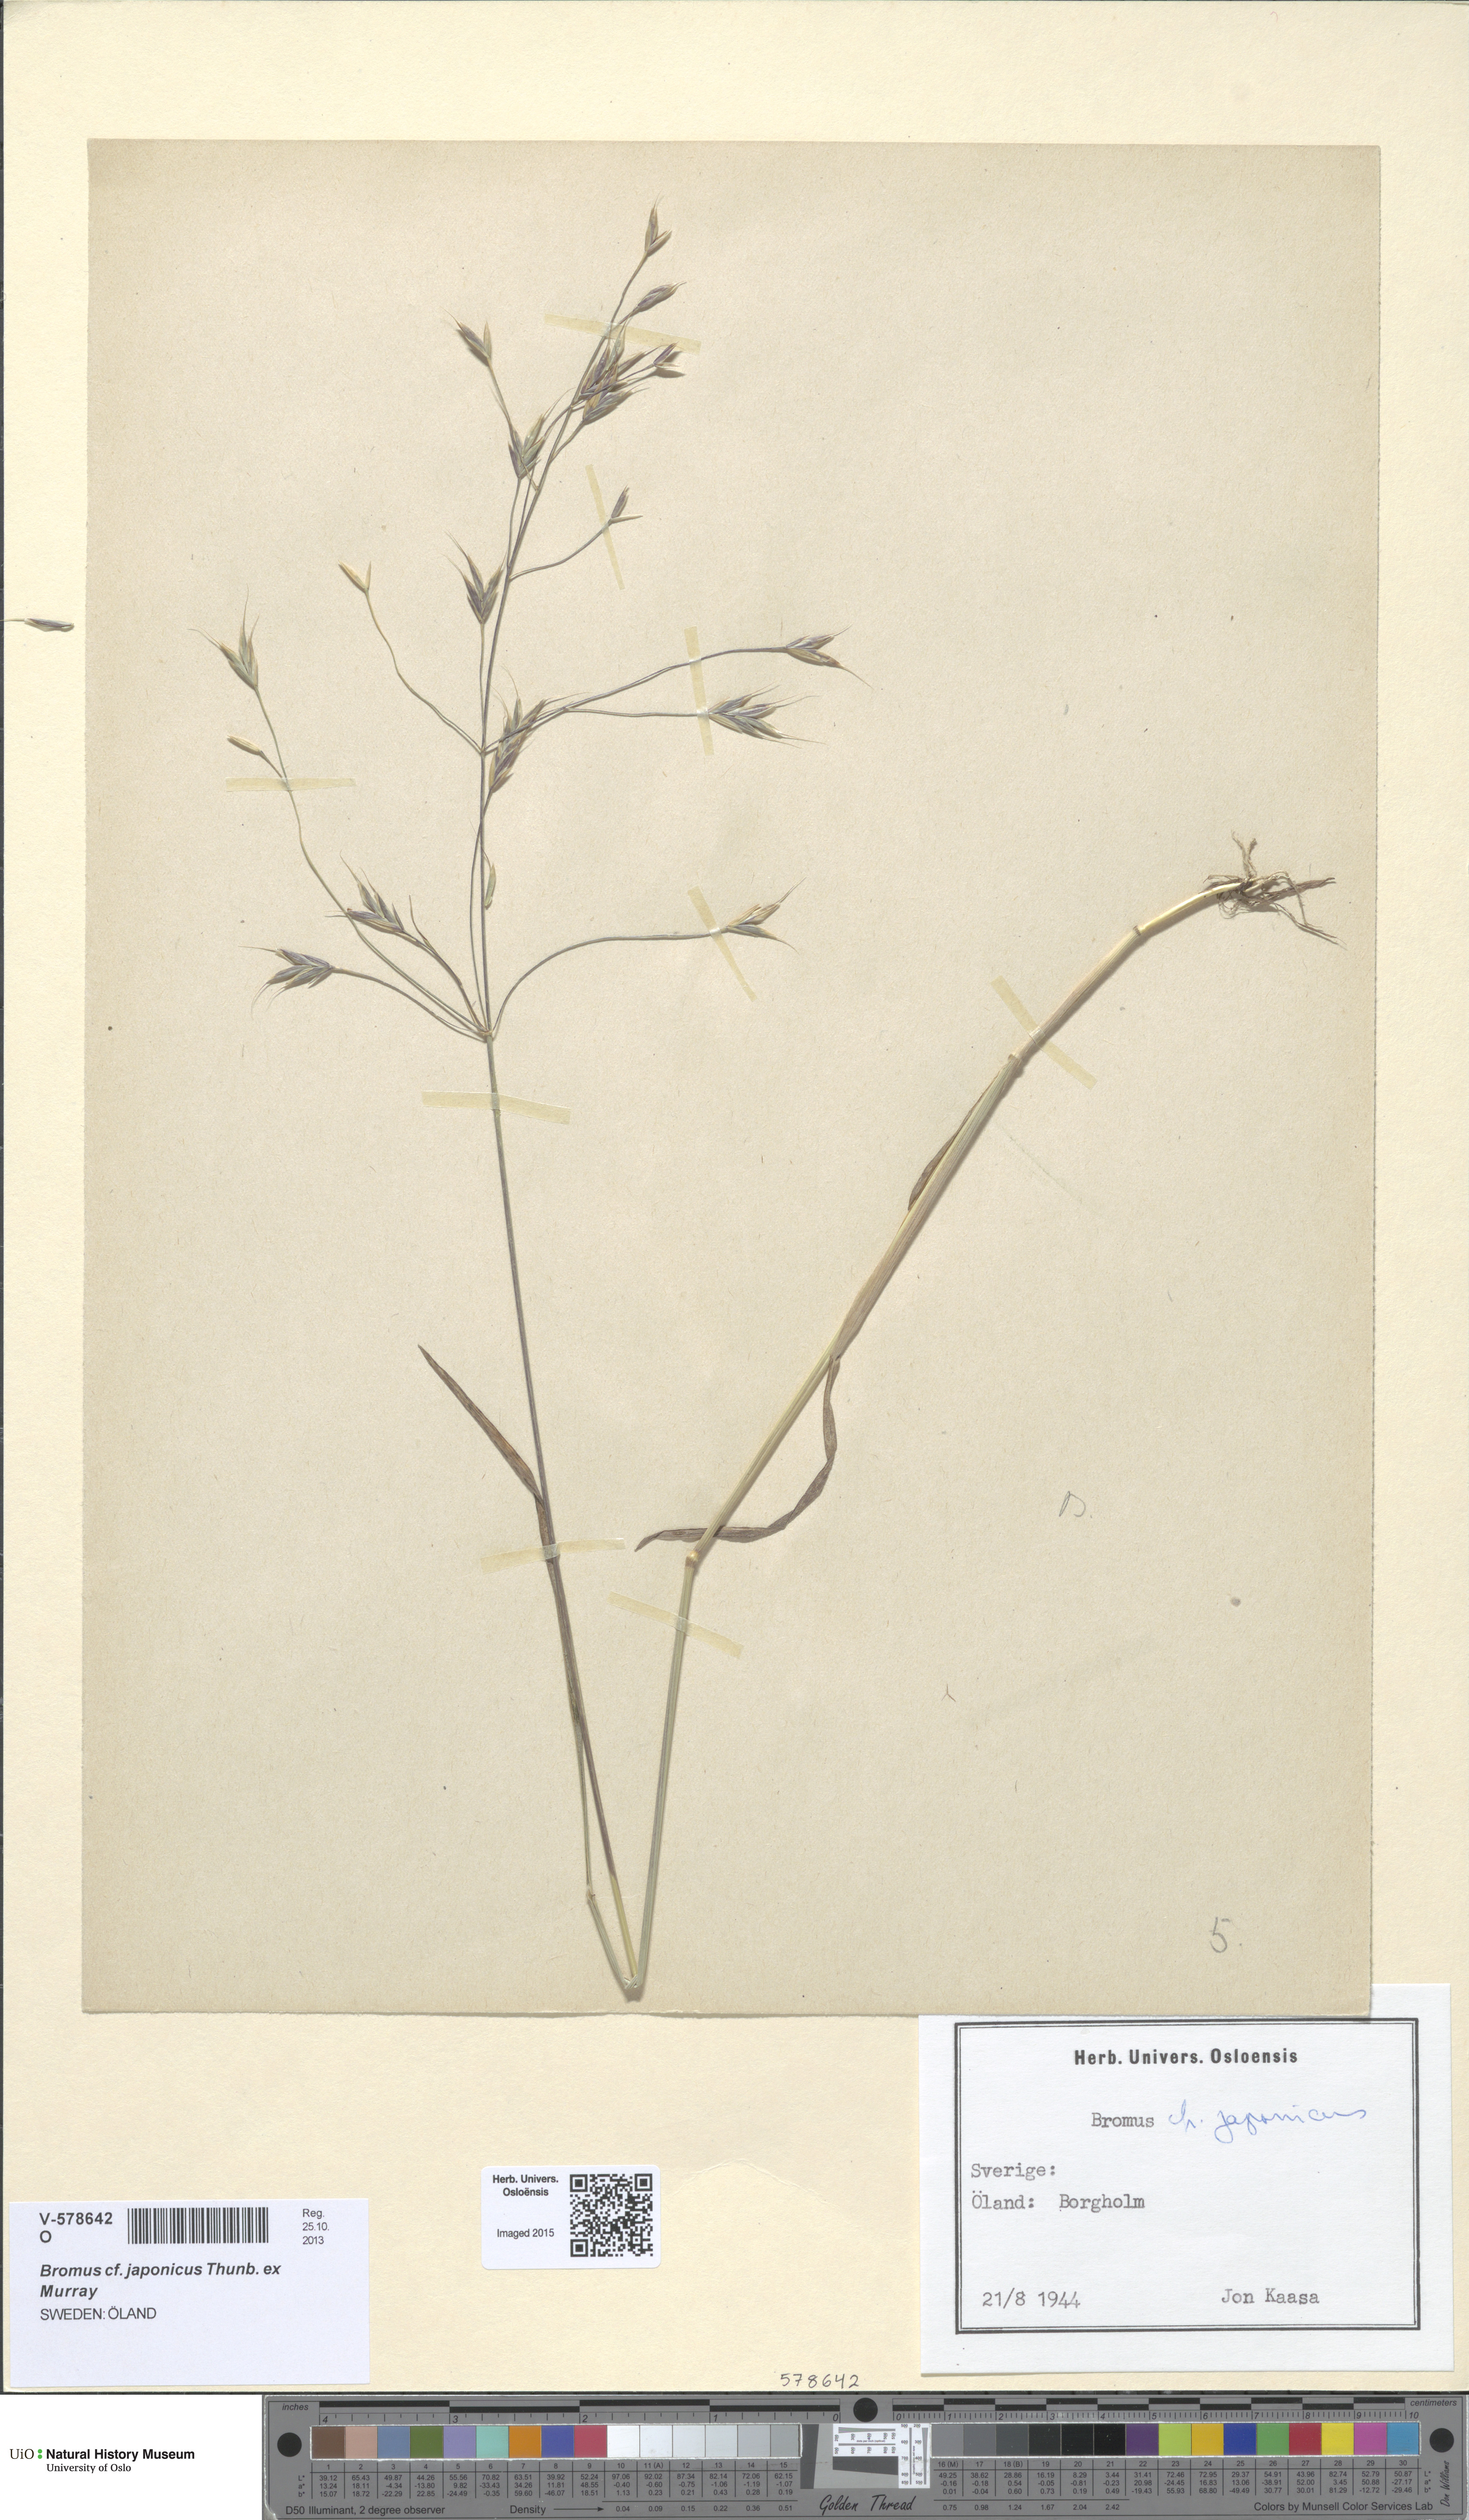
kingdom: Plantae
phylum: Tracheophyta
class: Liliopsida
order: Poales
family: Poaceae
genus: Bromus
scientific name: Bromus japonicus
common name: Japanese brome
